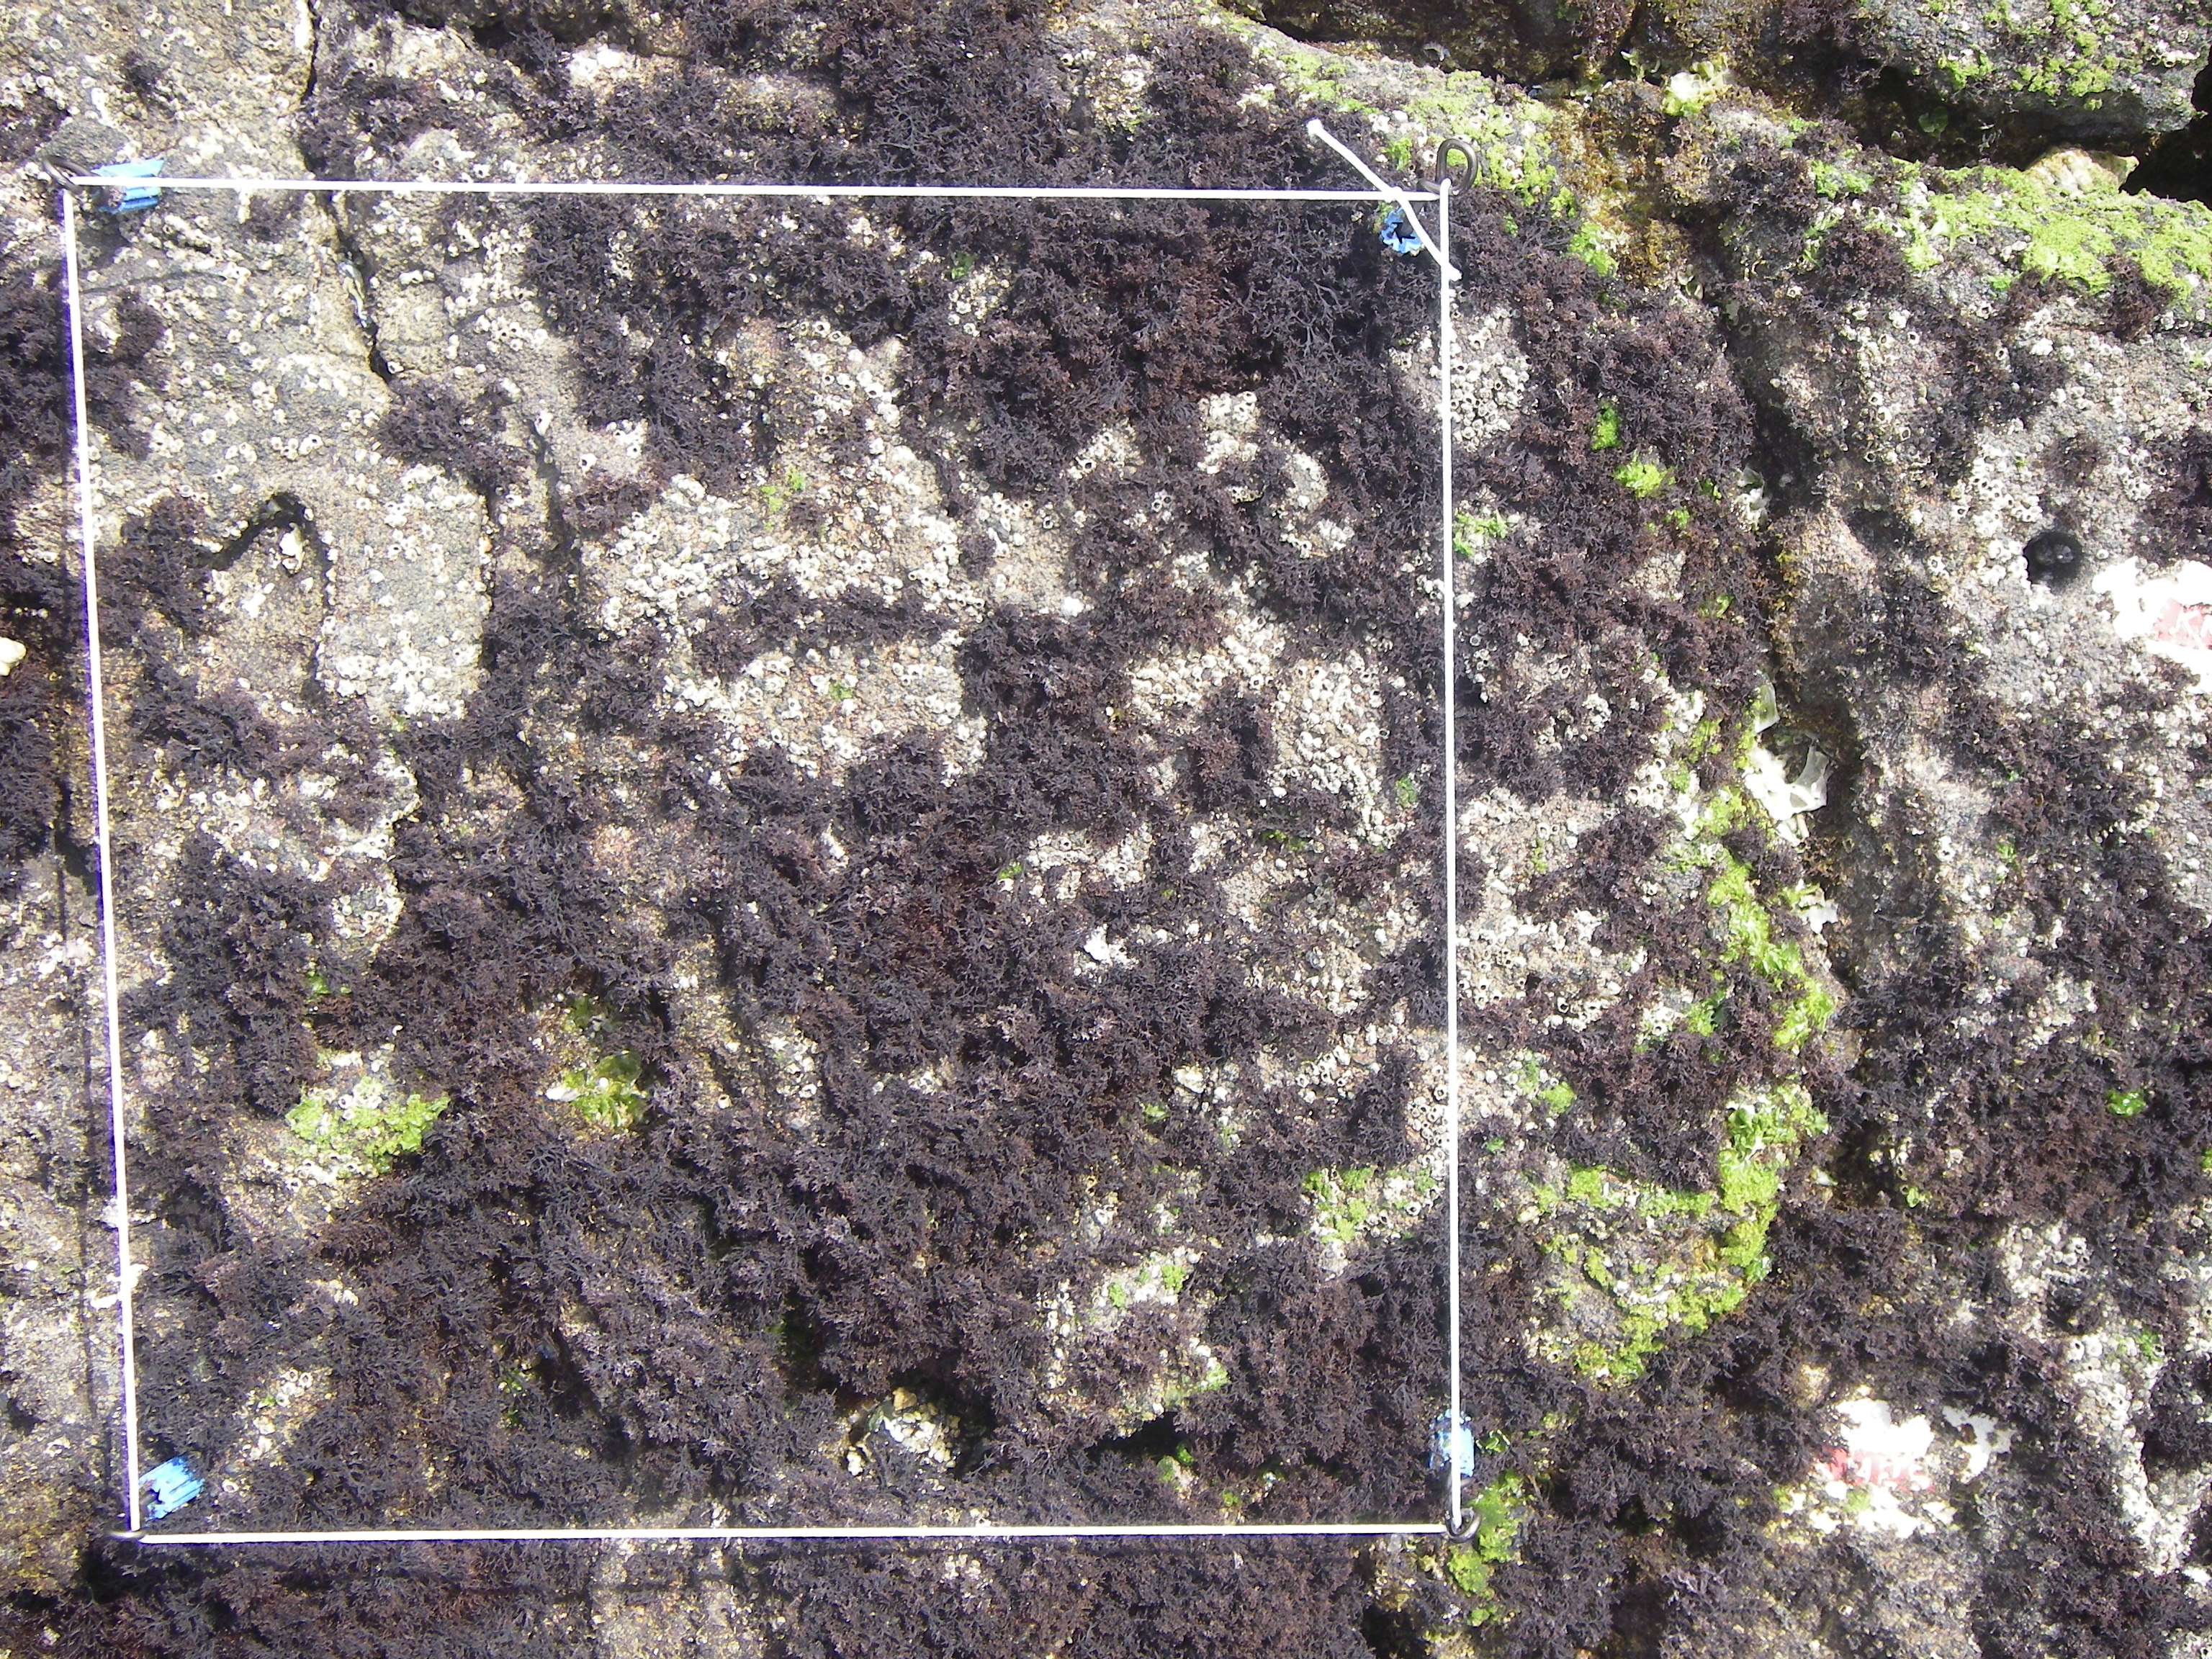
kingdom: Animalia
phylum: Arthropoda
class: Maxillopoda
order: Sessilia
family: Chthamalidae
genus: Chthamalus
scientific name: Chthamalus challengeri
